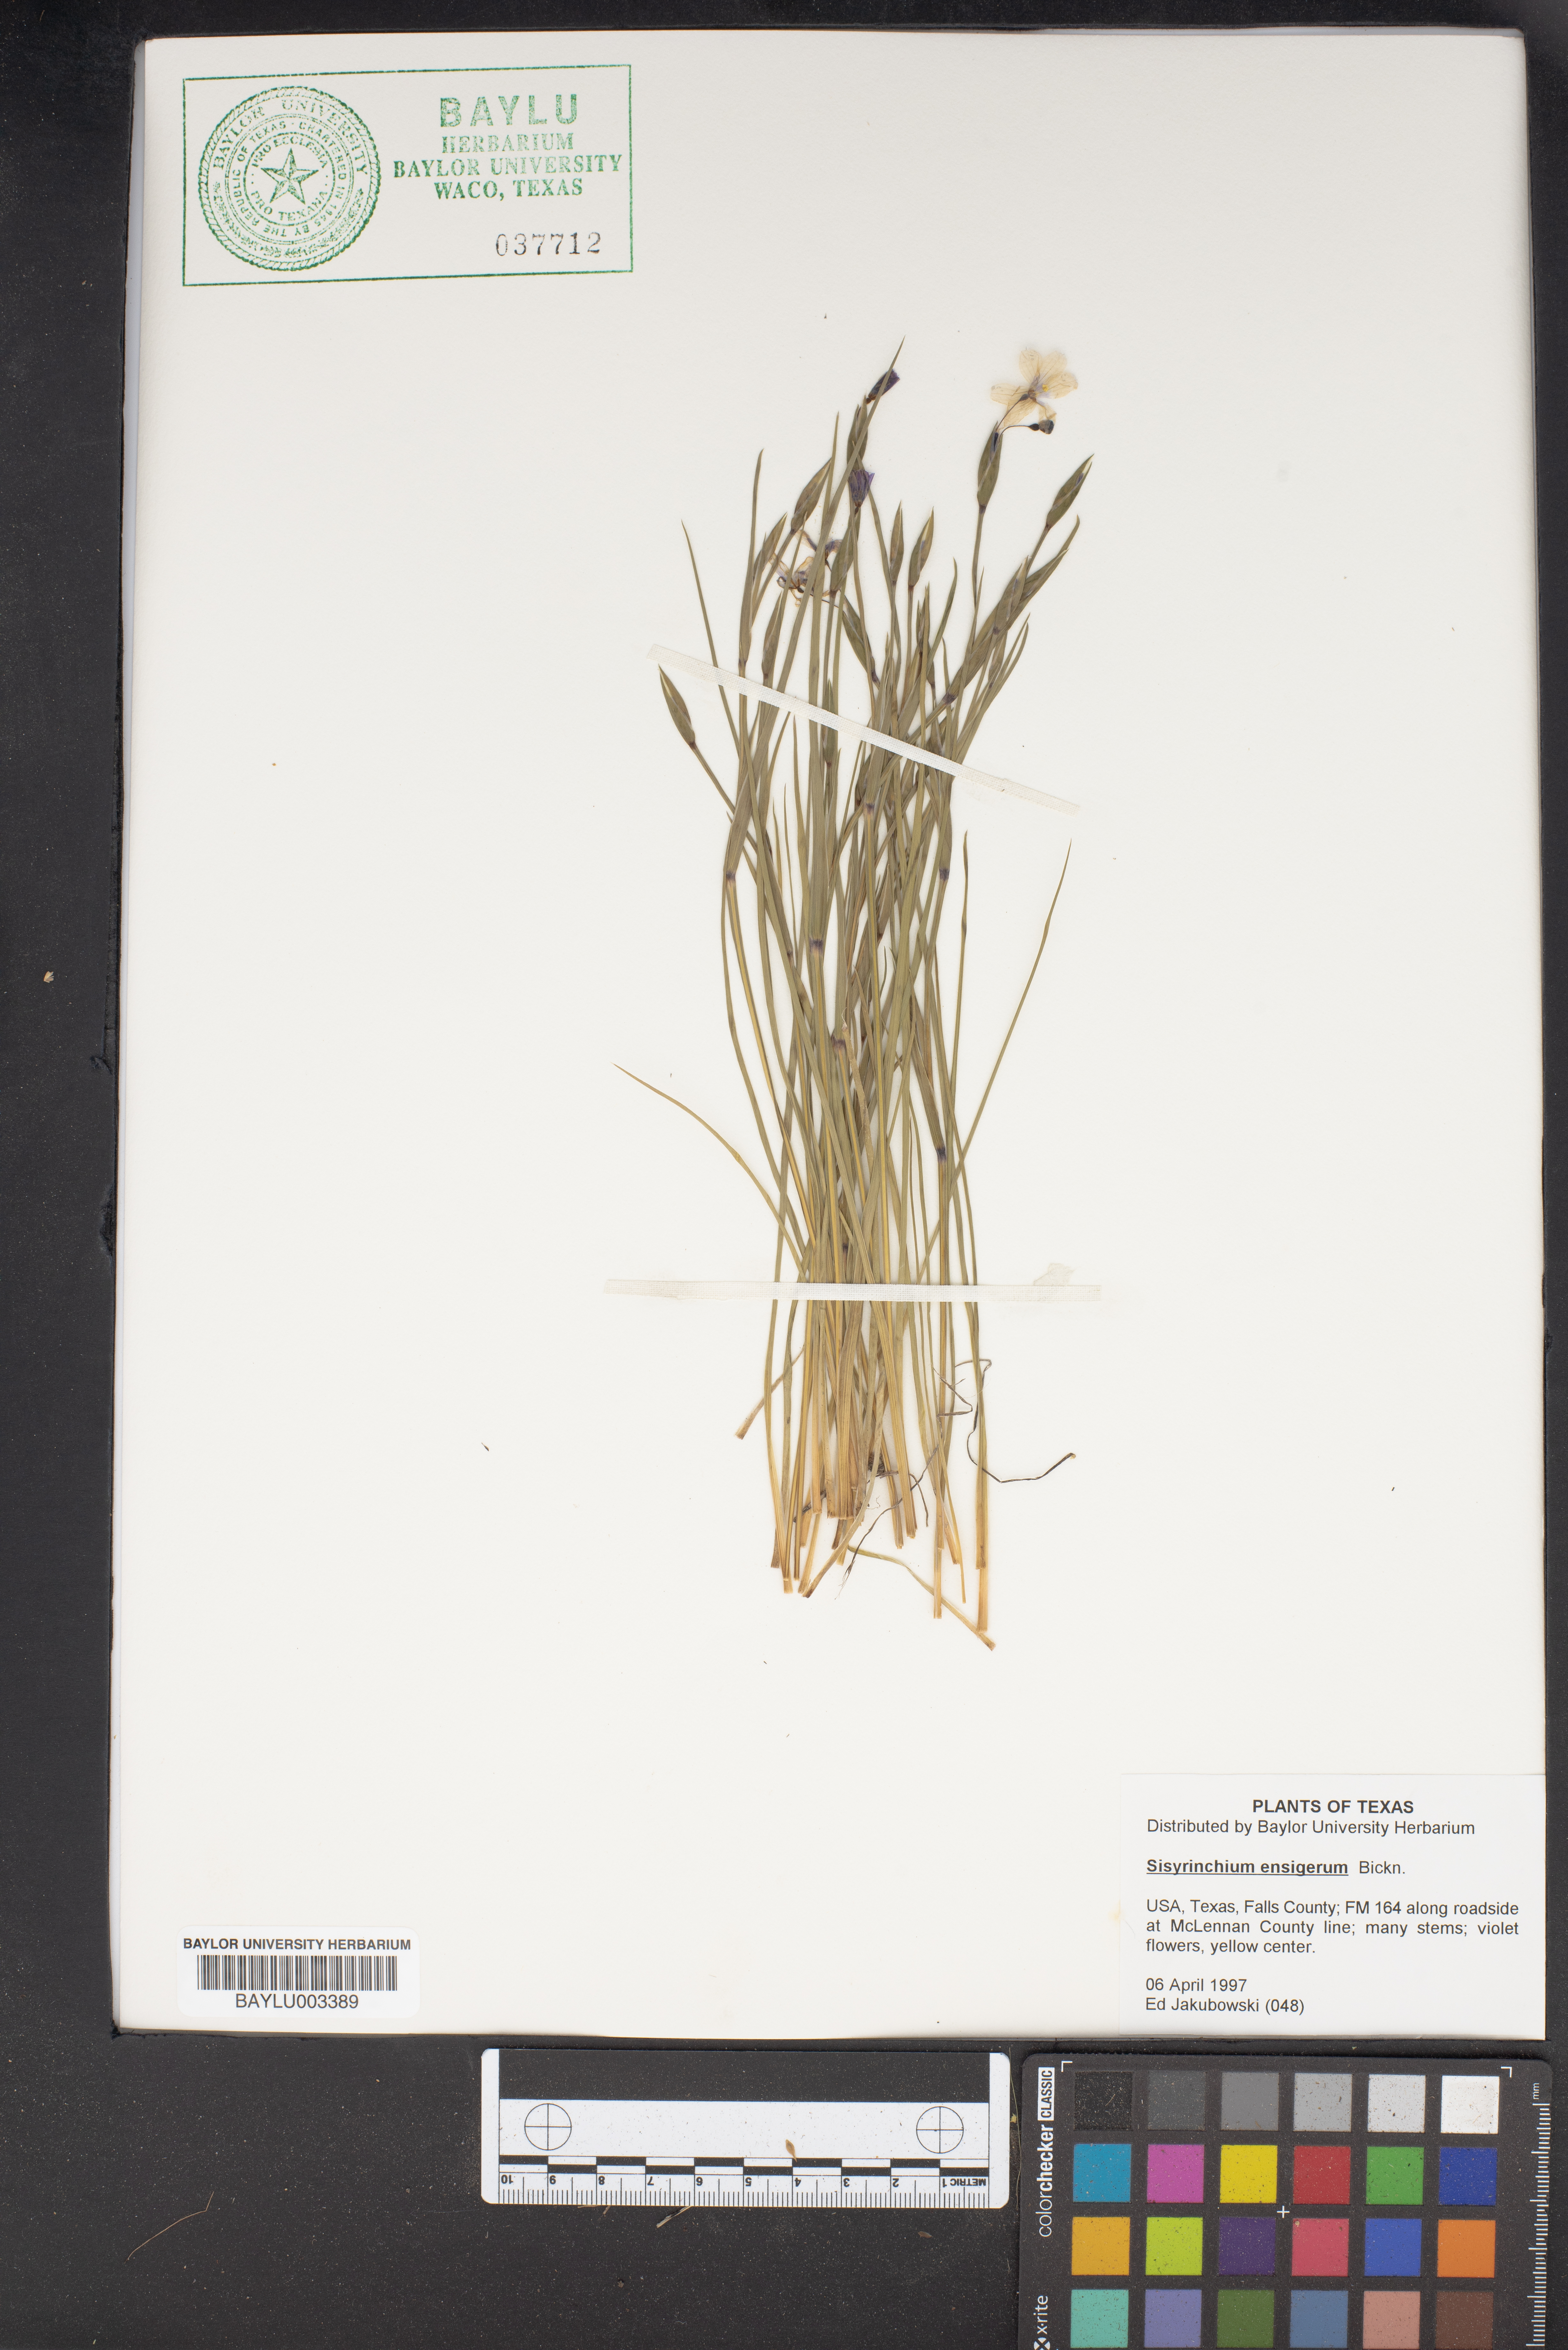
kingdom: Plantae
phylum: Tracheophyta
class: Liliopsida
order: Asparagales
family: Iridaceae
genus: Sisyrinchium
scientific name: Sisyrinchium ensigerum
